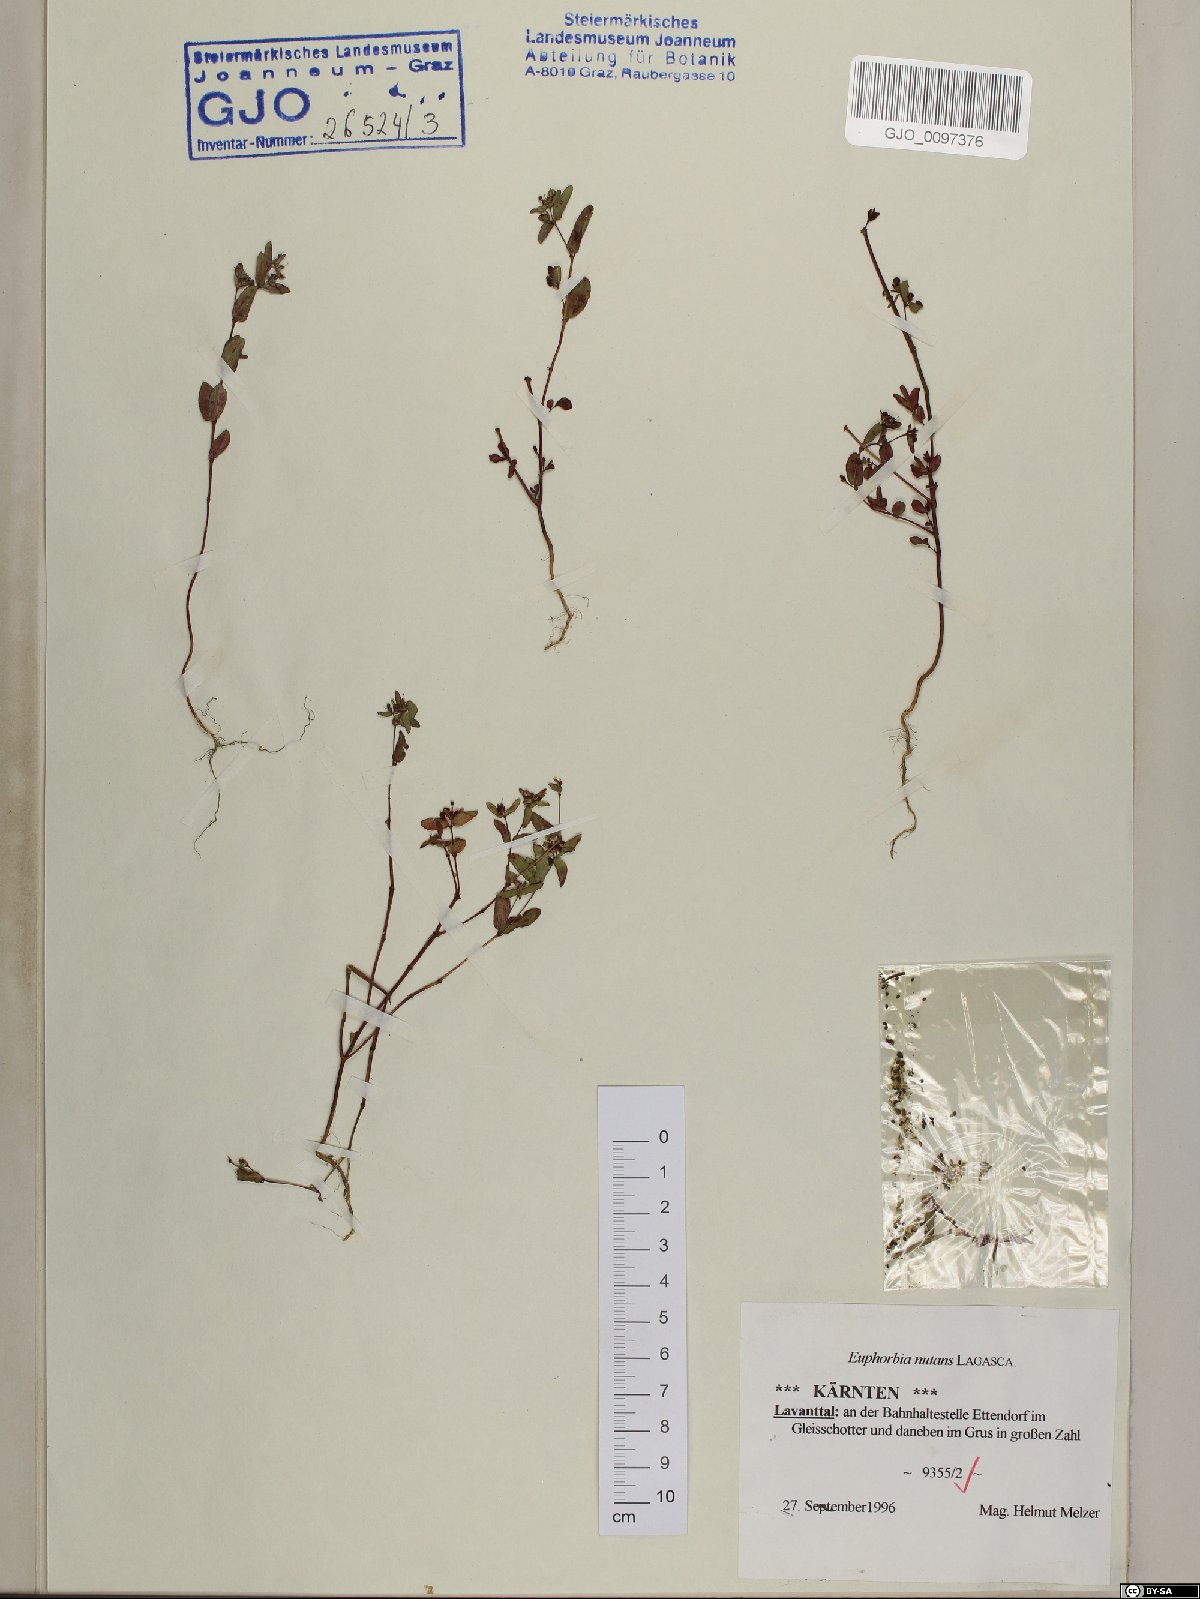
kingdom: Plantae
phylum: Tracheophyta
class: Magnoliopsida
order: Malpighiales
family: Euphorbiaceae
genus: Euphorbia
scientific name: Euphorbia nutans
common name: Eyebane
